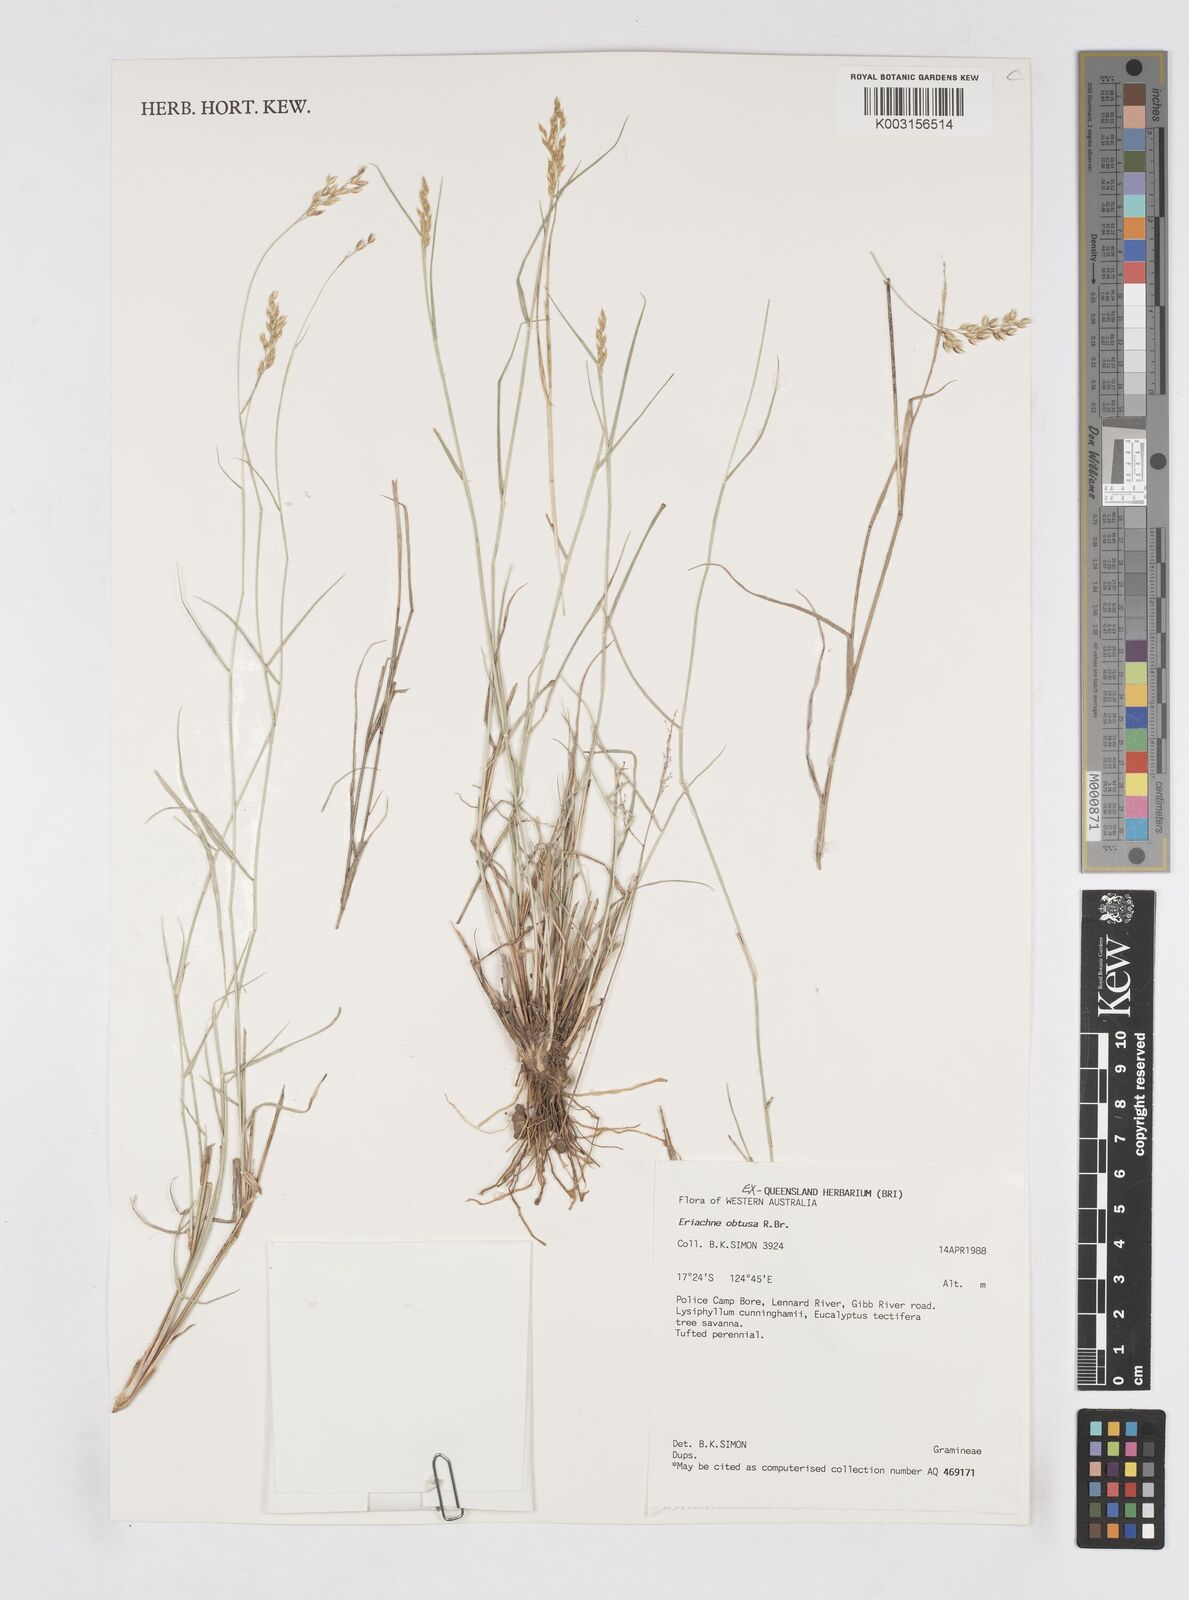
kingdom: Plantae
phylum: Tracheophyta
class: Liliopsida
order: Poales
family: Poaceae
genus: Eriachne
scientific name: Eriachne obtusa
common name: Northern wanderrie grass
